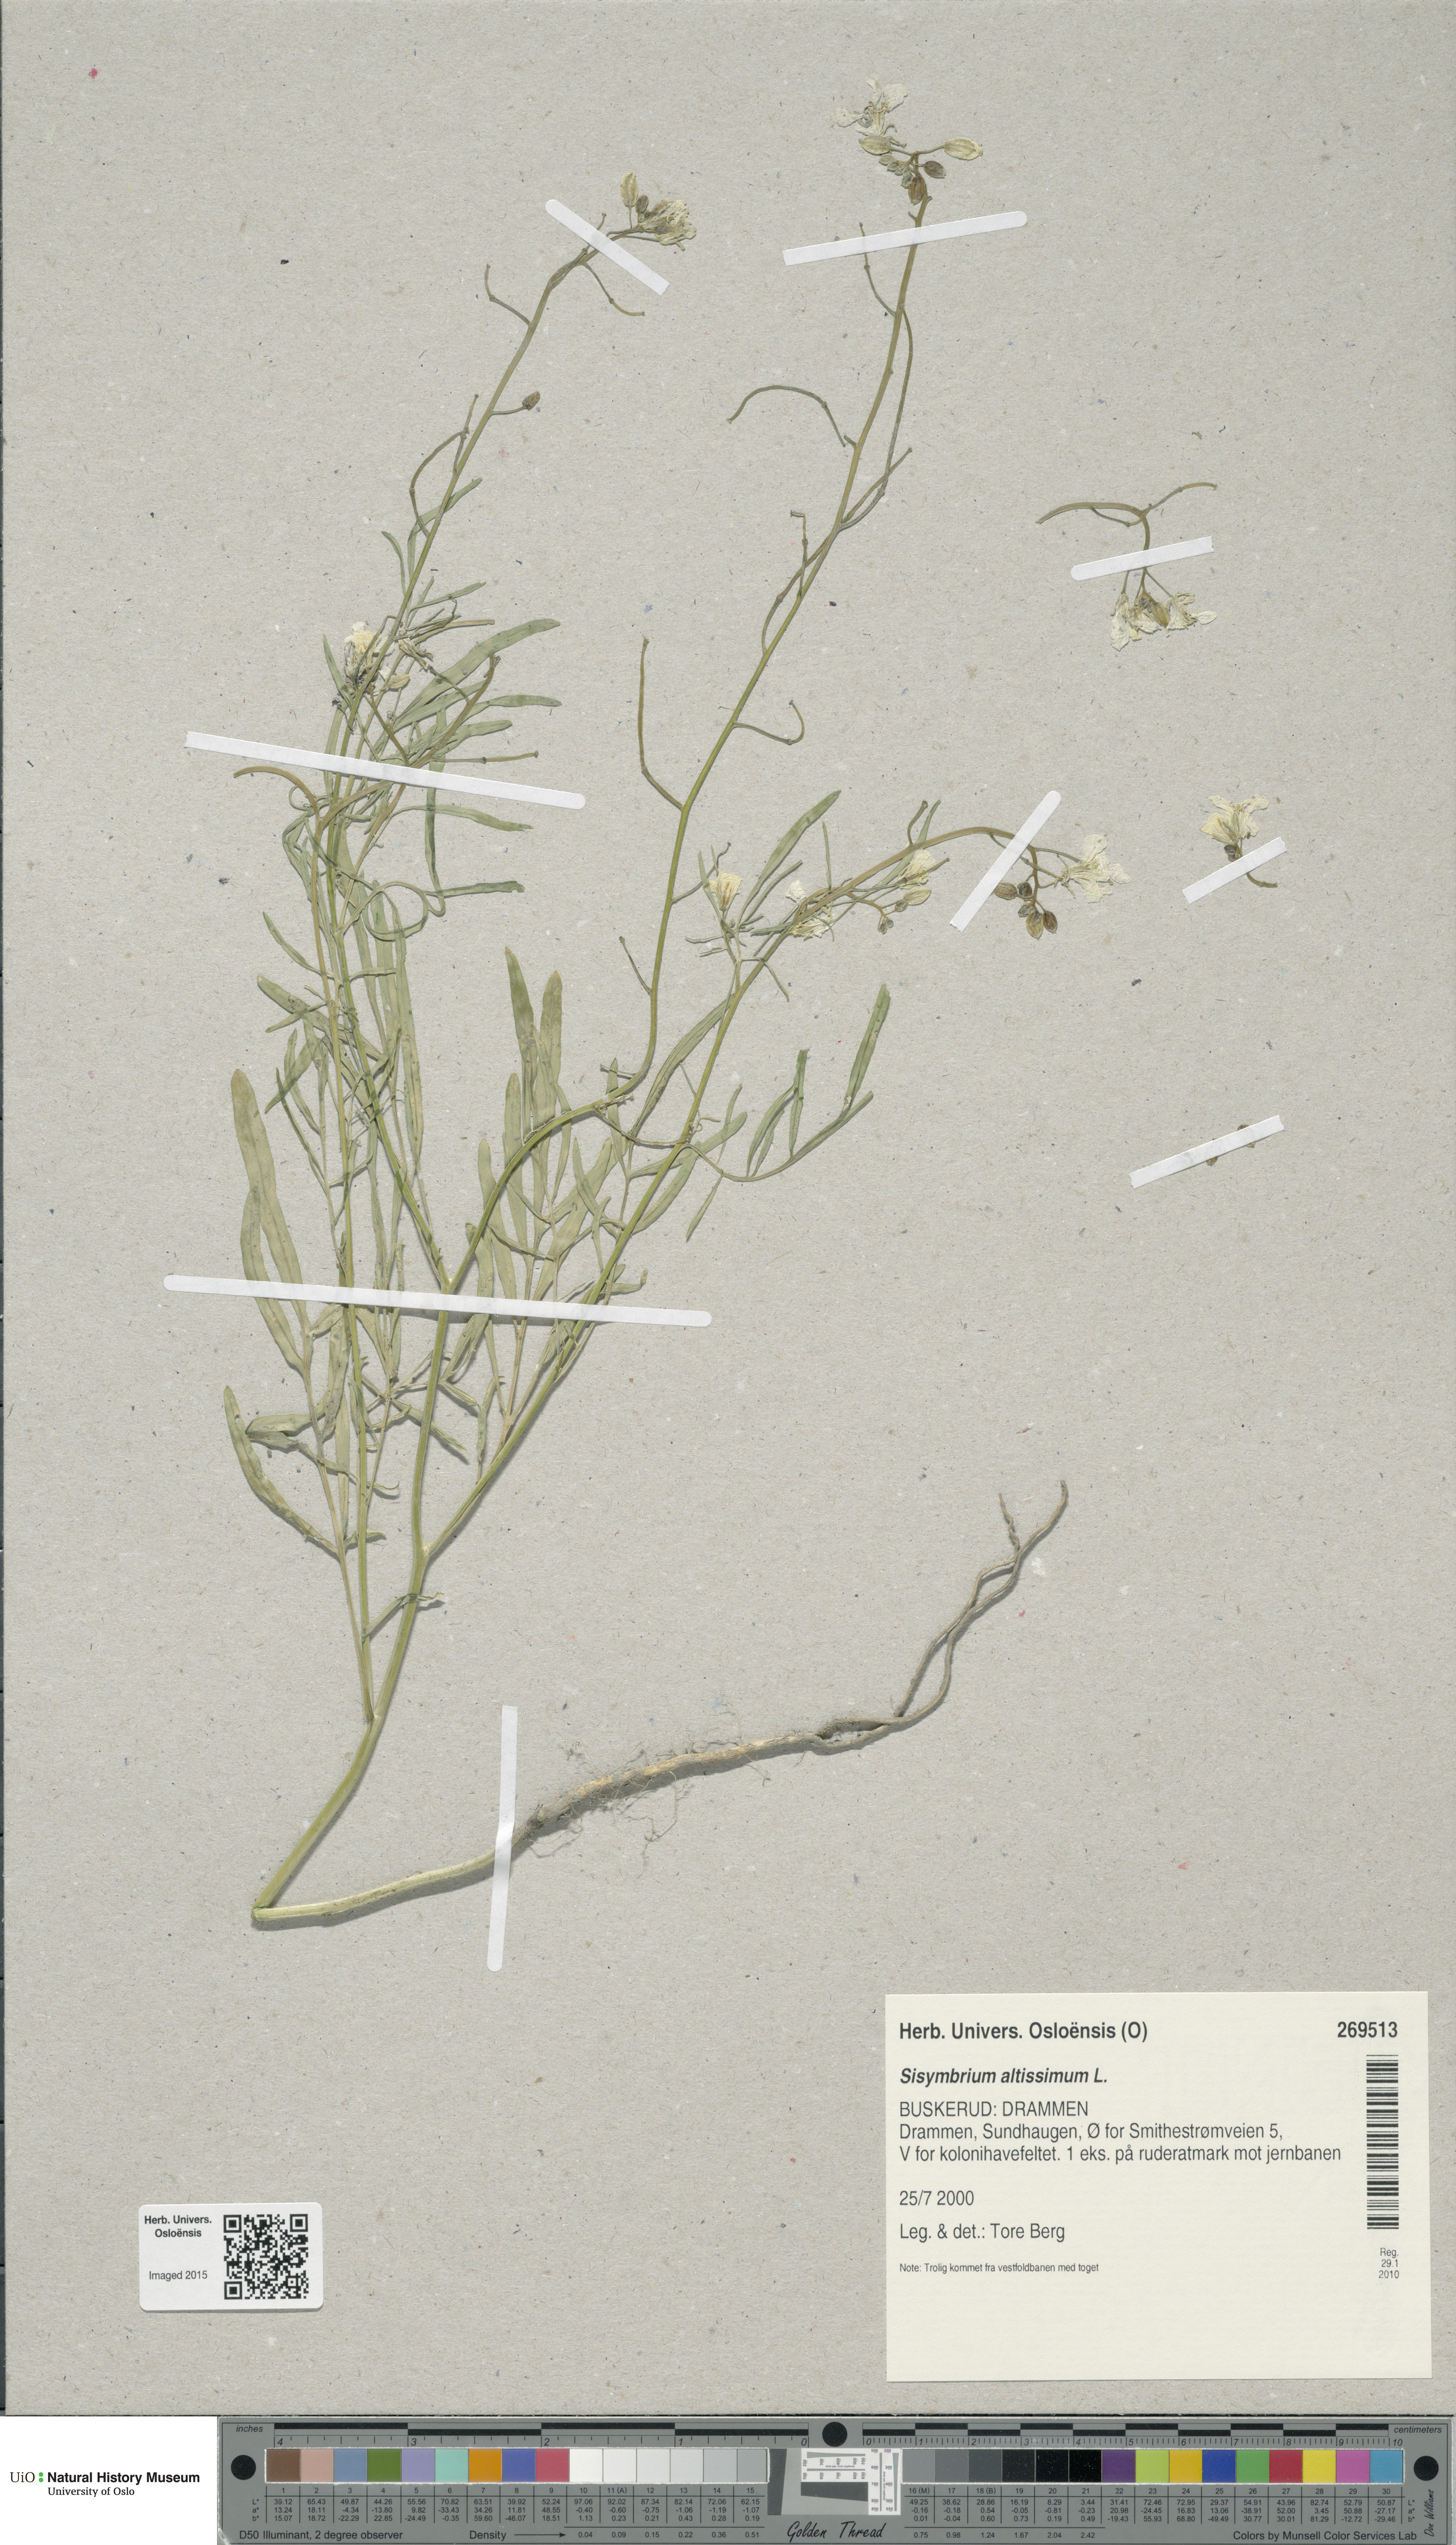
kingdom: Plantae
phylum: Tracheophyta
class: Magnoliopsida
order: Brassicales
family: Brassicaceae
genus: Sisymbrium
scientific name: Sisymbrium altissimum
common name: Tall rocket
